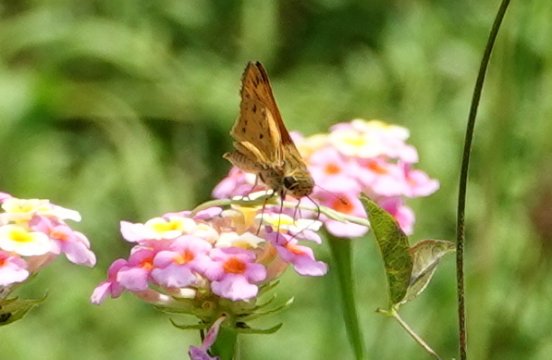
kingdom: Animalia
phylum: Arthropoda
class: Insecta
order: Lepidoptera
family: Hesperiidae
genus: Hylephila
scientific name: Hylephila phyleus
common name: Fiery Skipper
